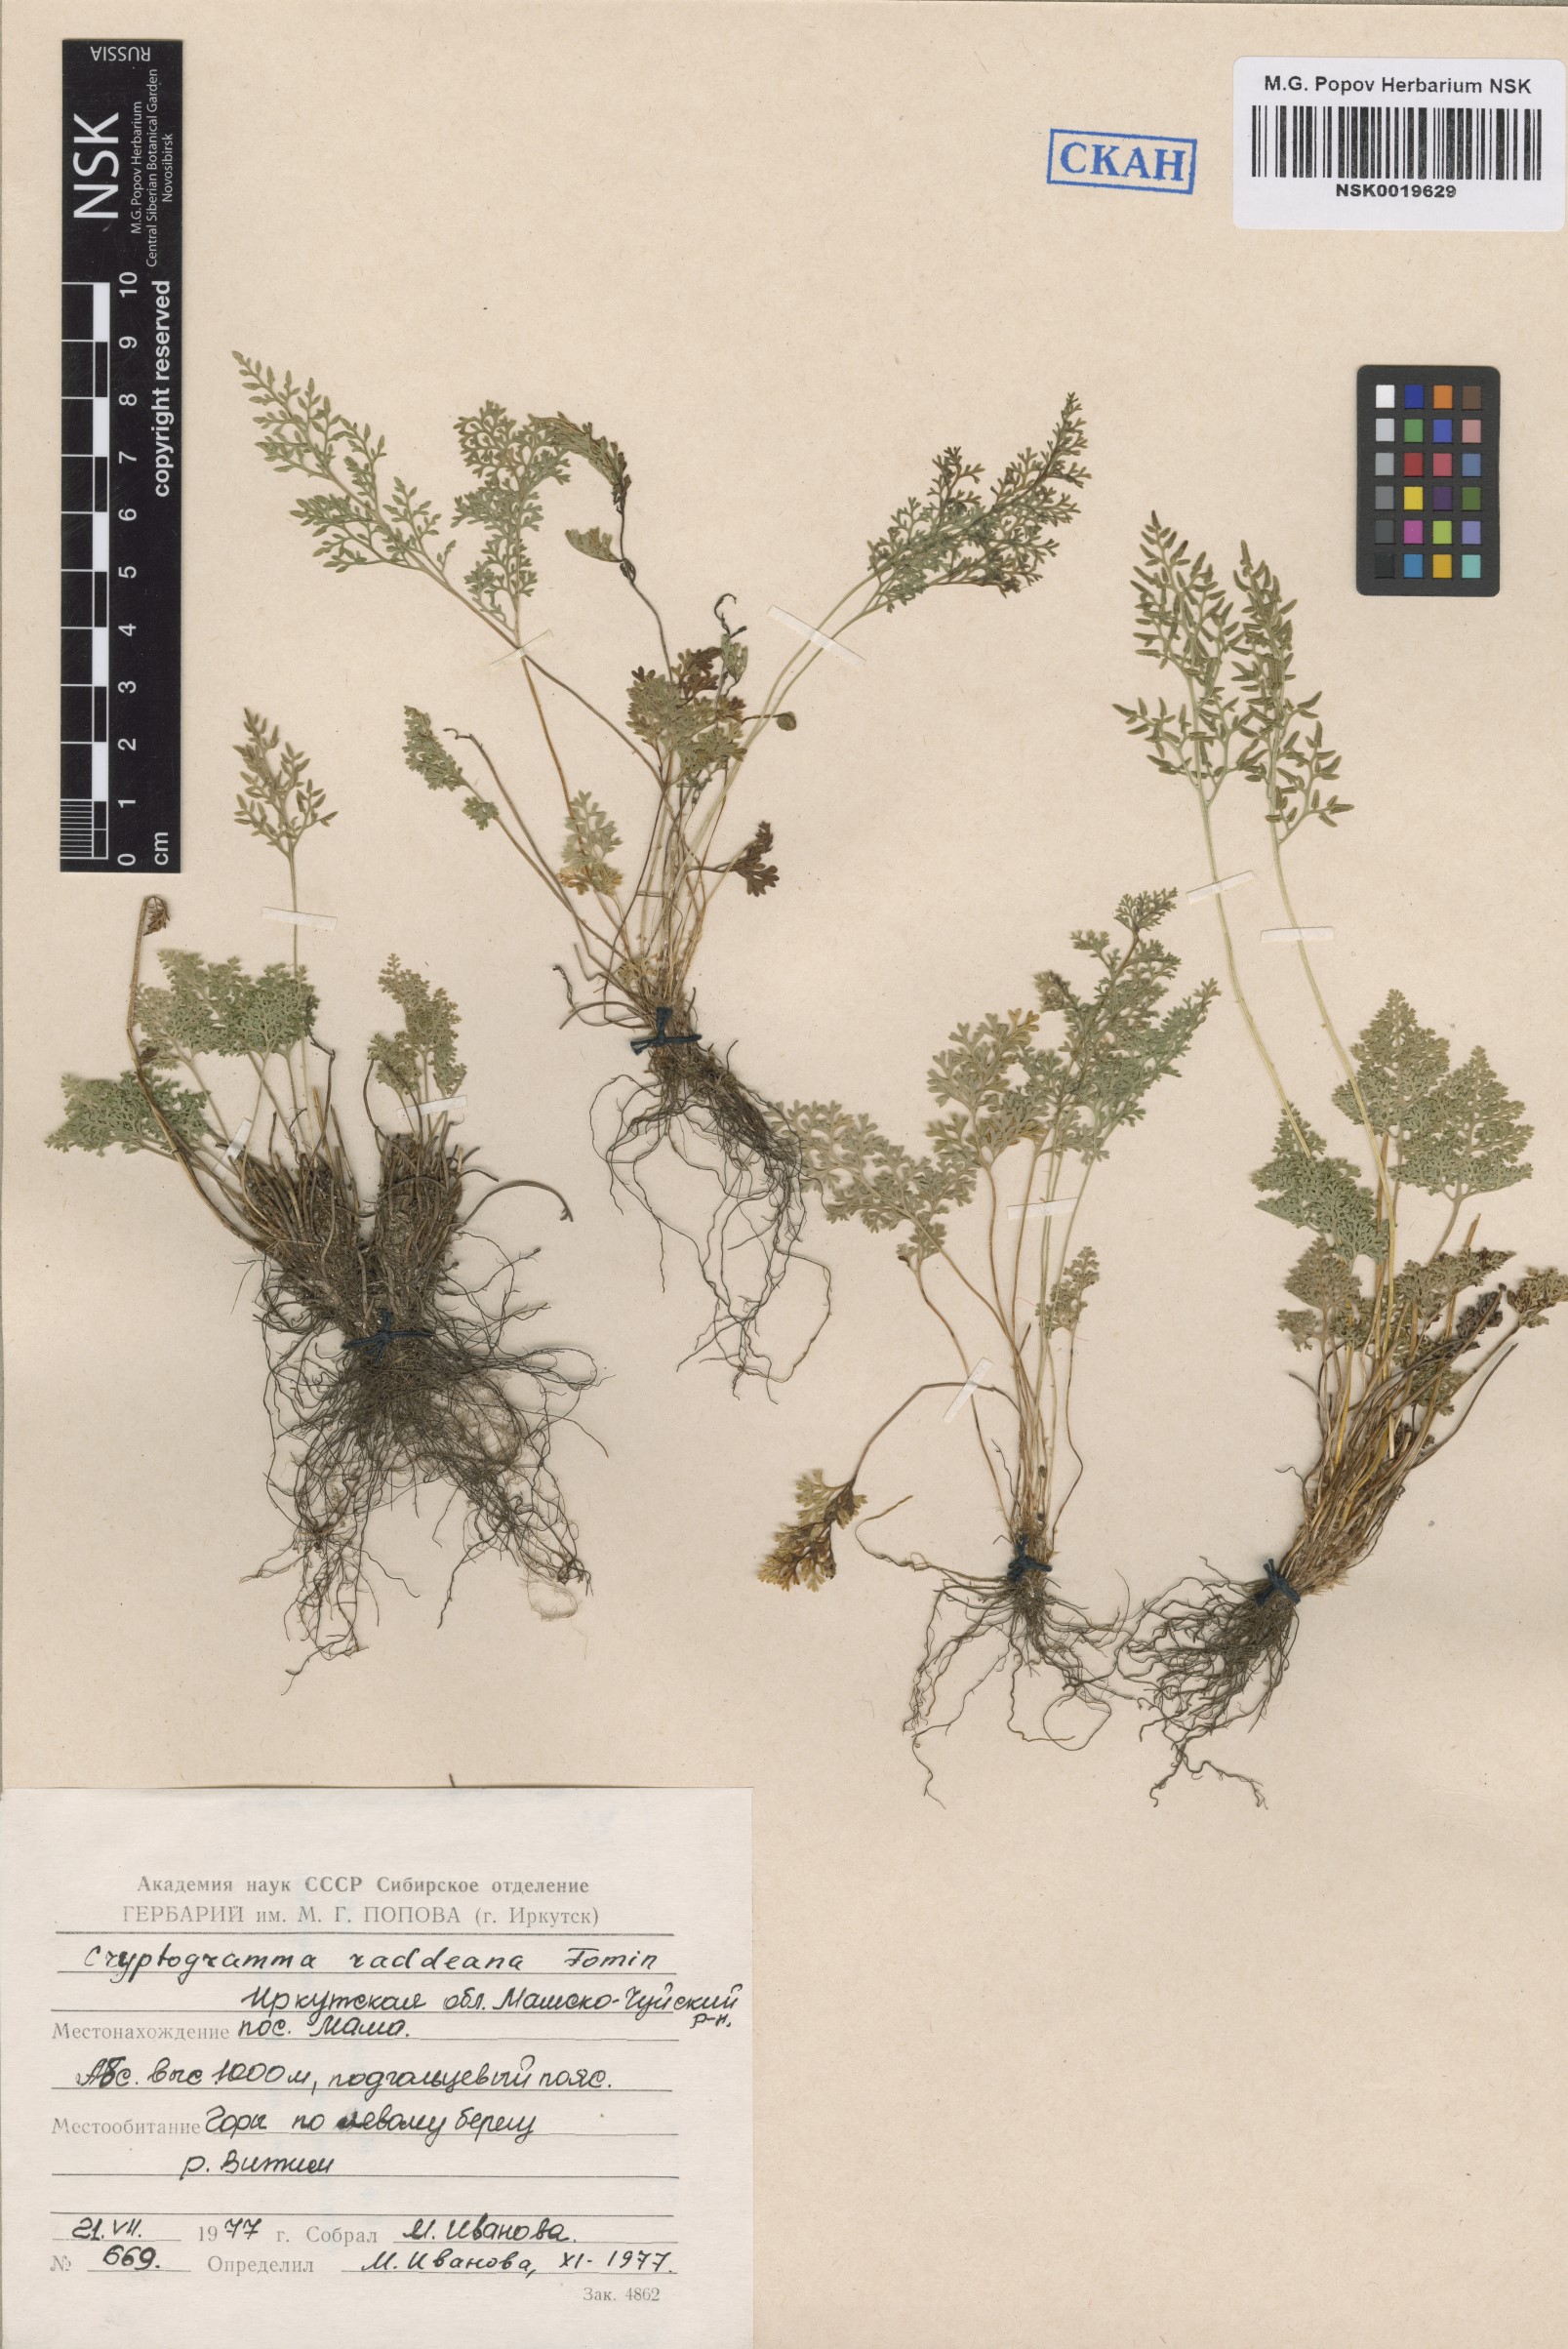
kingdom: Plantae
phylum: Tracheophyta
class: Polypodiopsida
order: Polypodiales
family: Pteridaceae
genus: Cryptogramma
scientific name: Cryptogramma brunoniana
